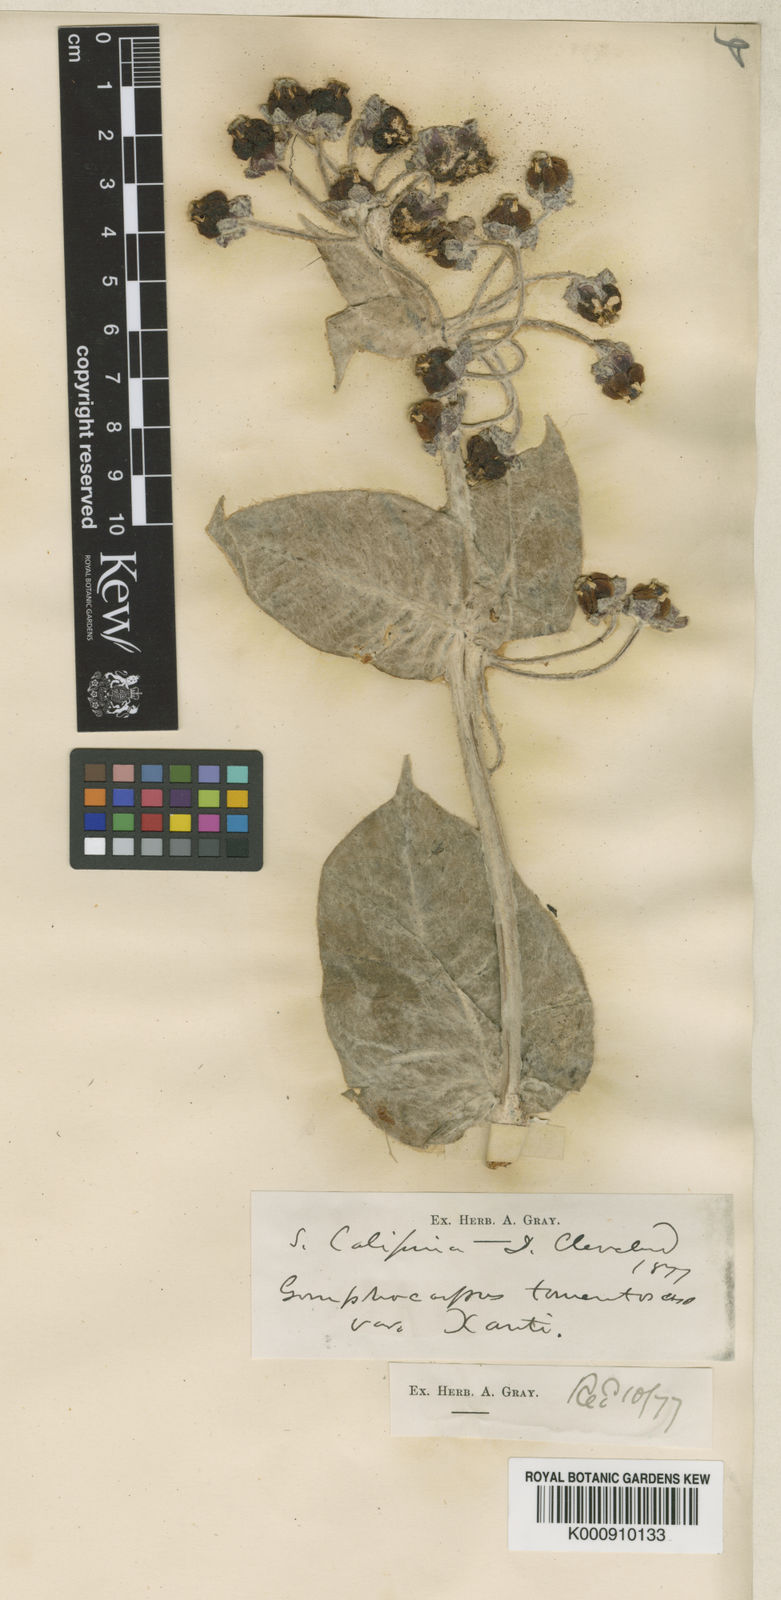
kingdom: Plantae
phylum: Tracheophyta
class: Magnoliopsida
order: Gentianales
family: Apocynaceae
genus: Asclepias
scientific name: Asclepias californica
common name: California milkweed
